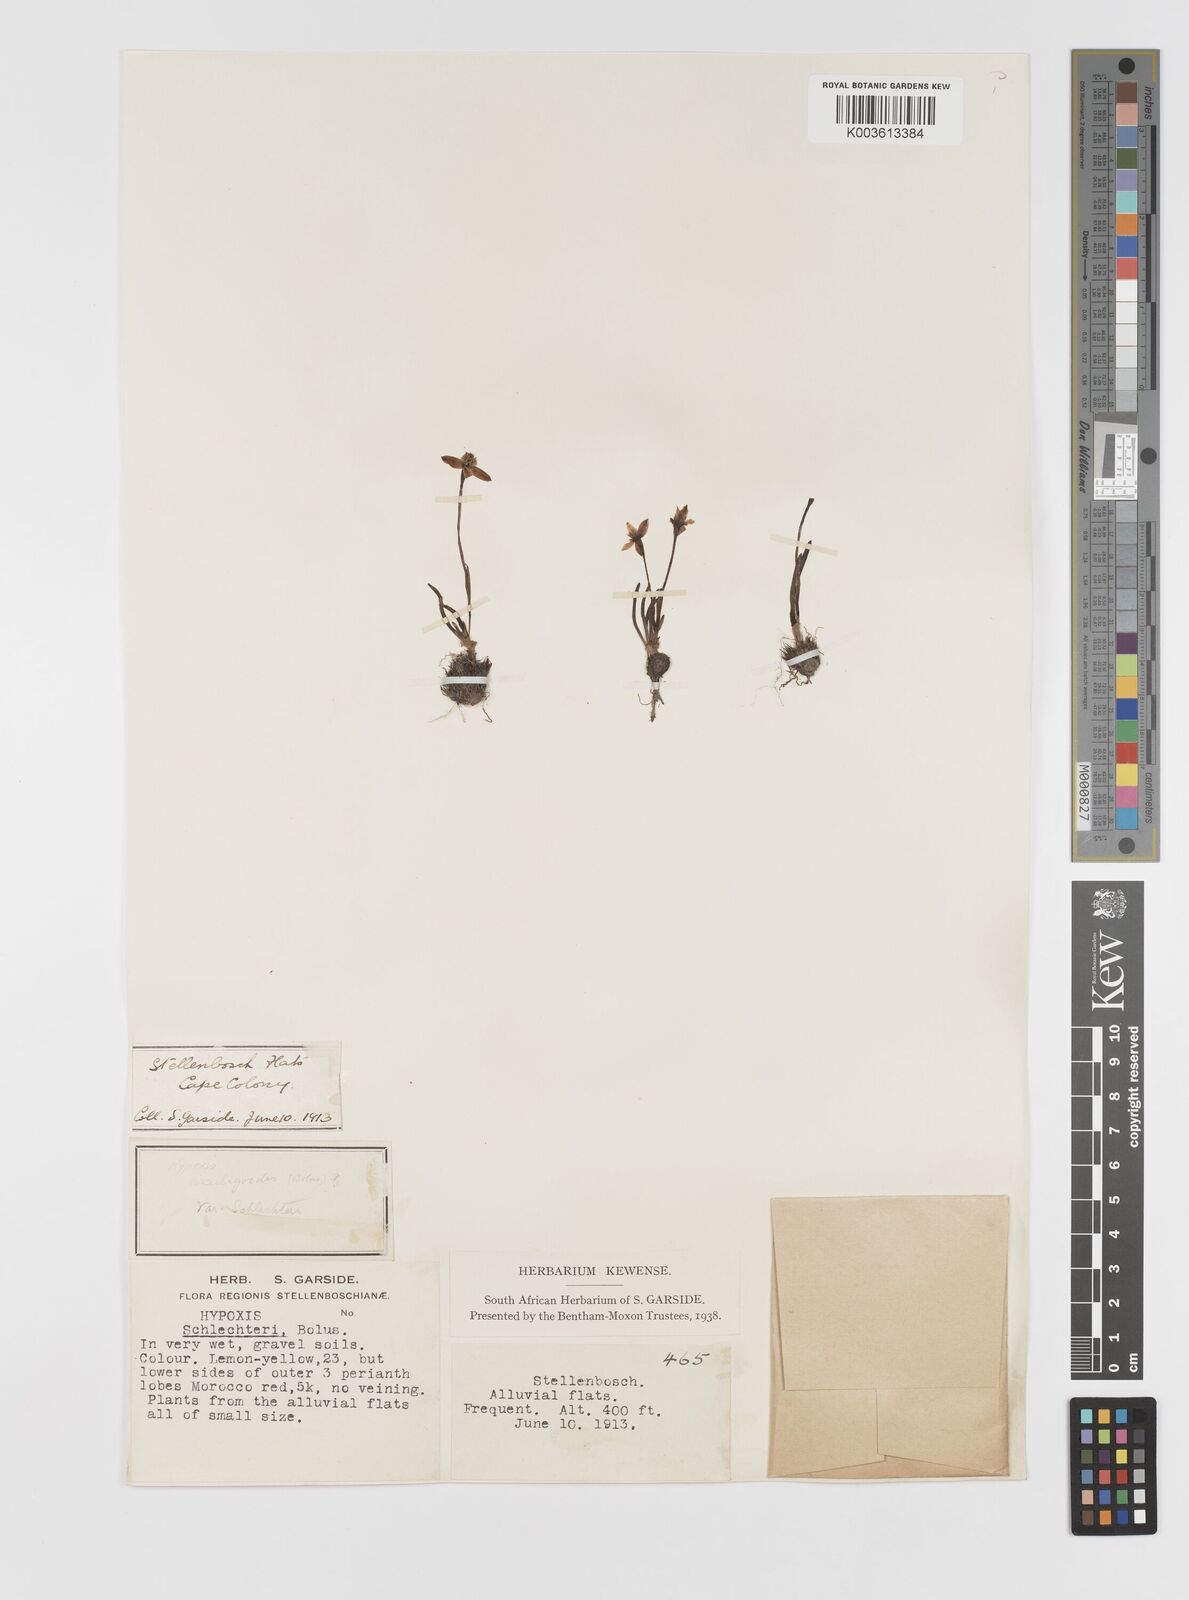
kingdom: Plantae
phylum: Tracheophyta
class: Liliopsida
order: Asparagales
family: Hypoxidaceae
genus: Pauridia
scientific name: Pauridia affinis
